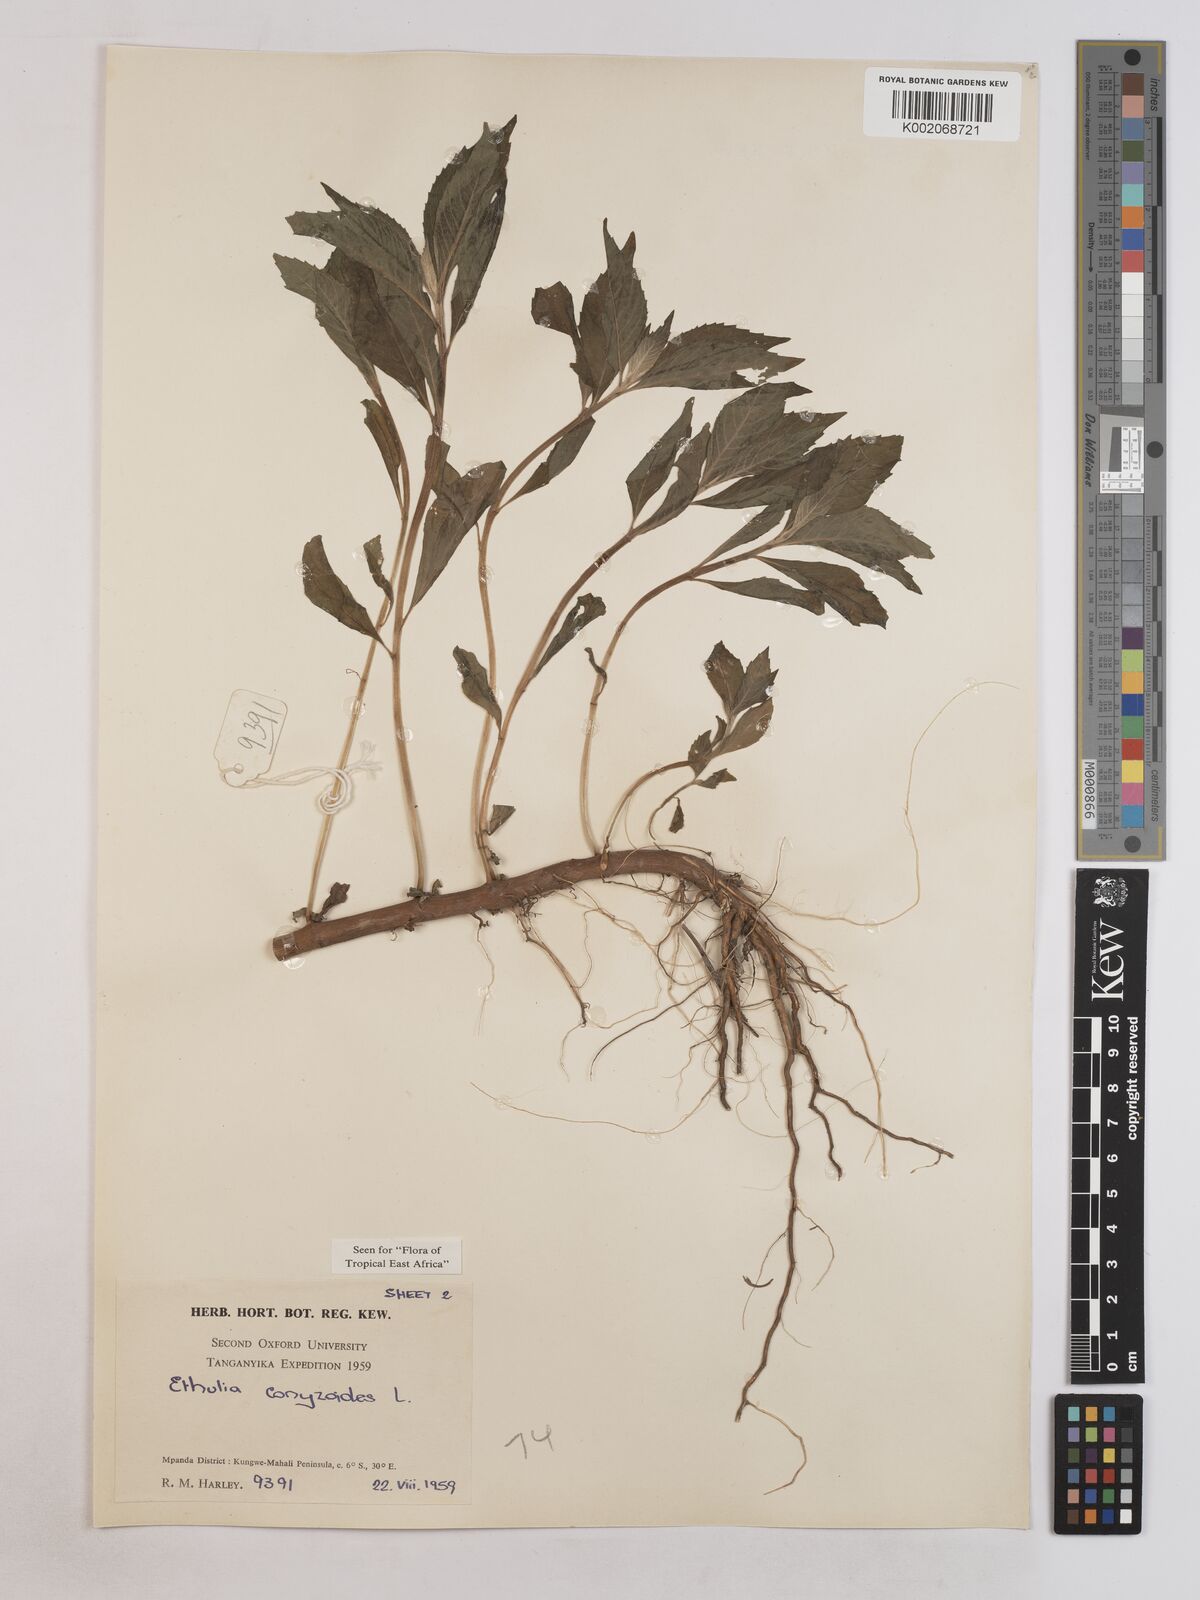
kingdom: Plantae
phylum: Tracheophyta
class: Magnoliopsida
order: Asterales
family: Asteraceae
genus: Ethulia
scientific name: Ethulia conyzoides
